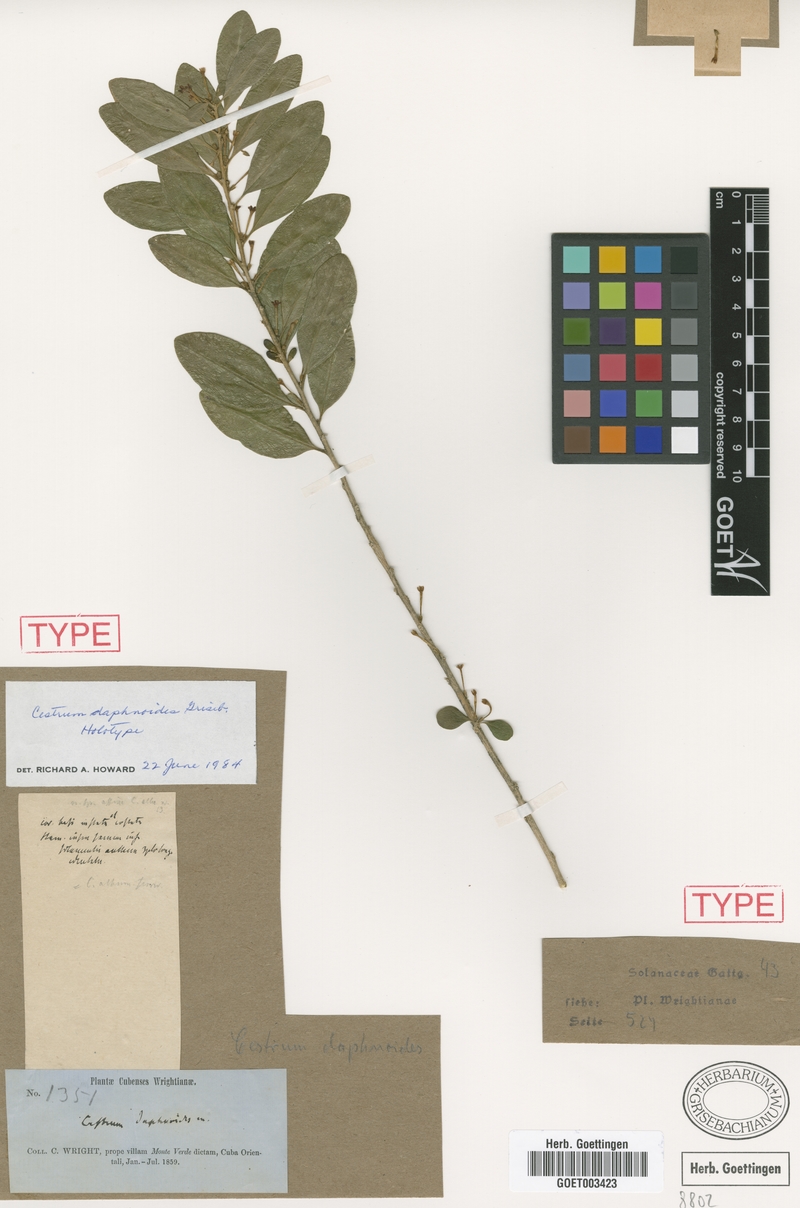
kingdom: Plantae
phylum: Tracheophyta
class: Magnoliopsida
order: Solanales
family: Solanaceae
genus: Cestrum
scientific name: Cestrum daphnoides
